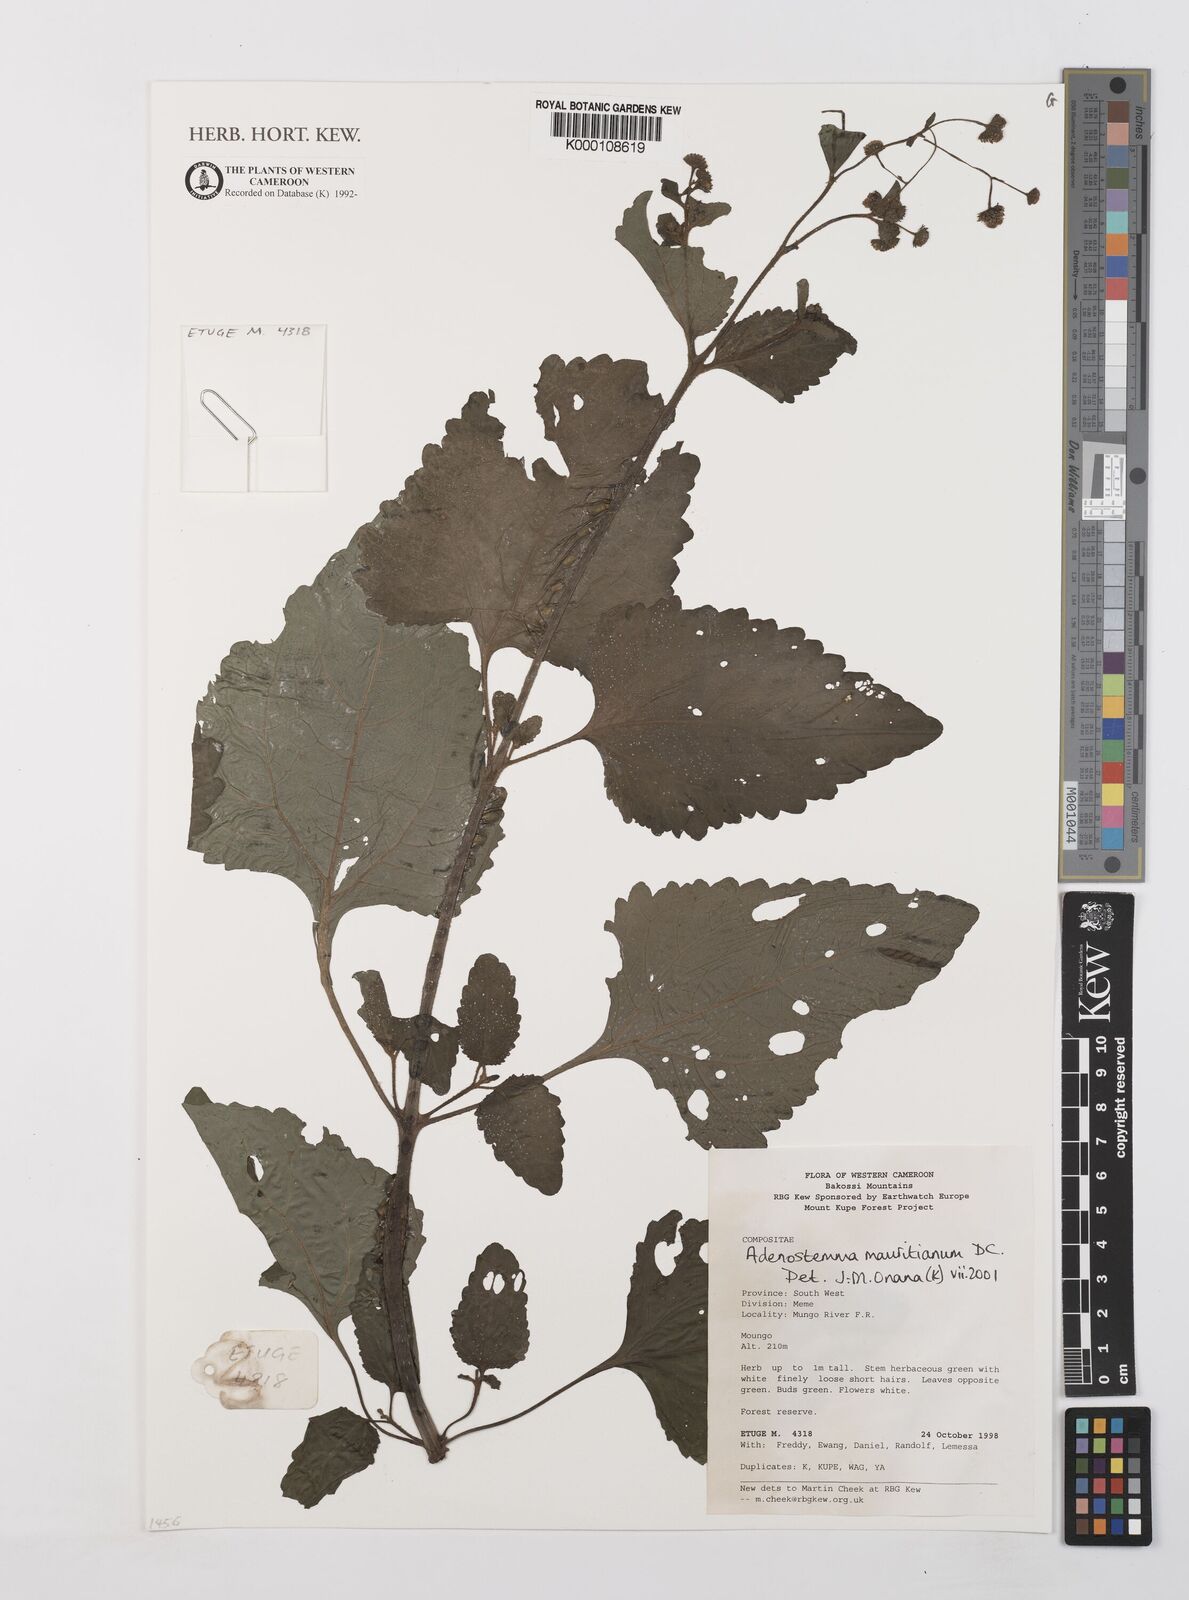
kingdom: Plantae
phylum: Tracheophyta
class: Magnoliopsida
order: Asterales
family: Asteraceae
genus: Adenostemma
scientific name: Adenostemma mauritianum
